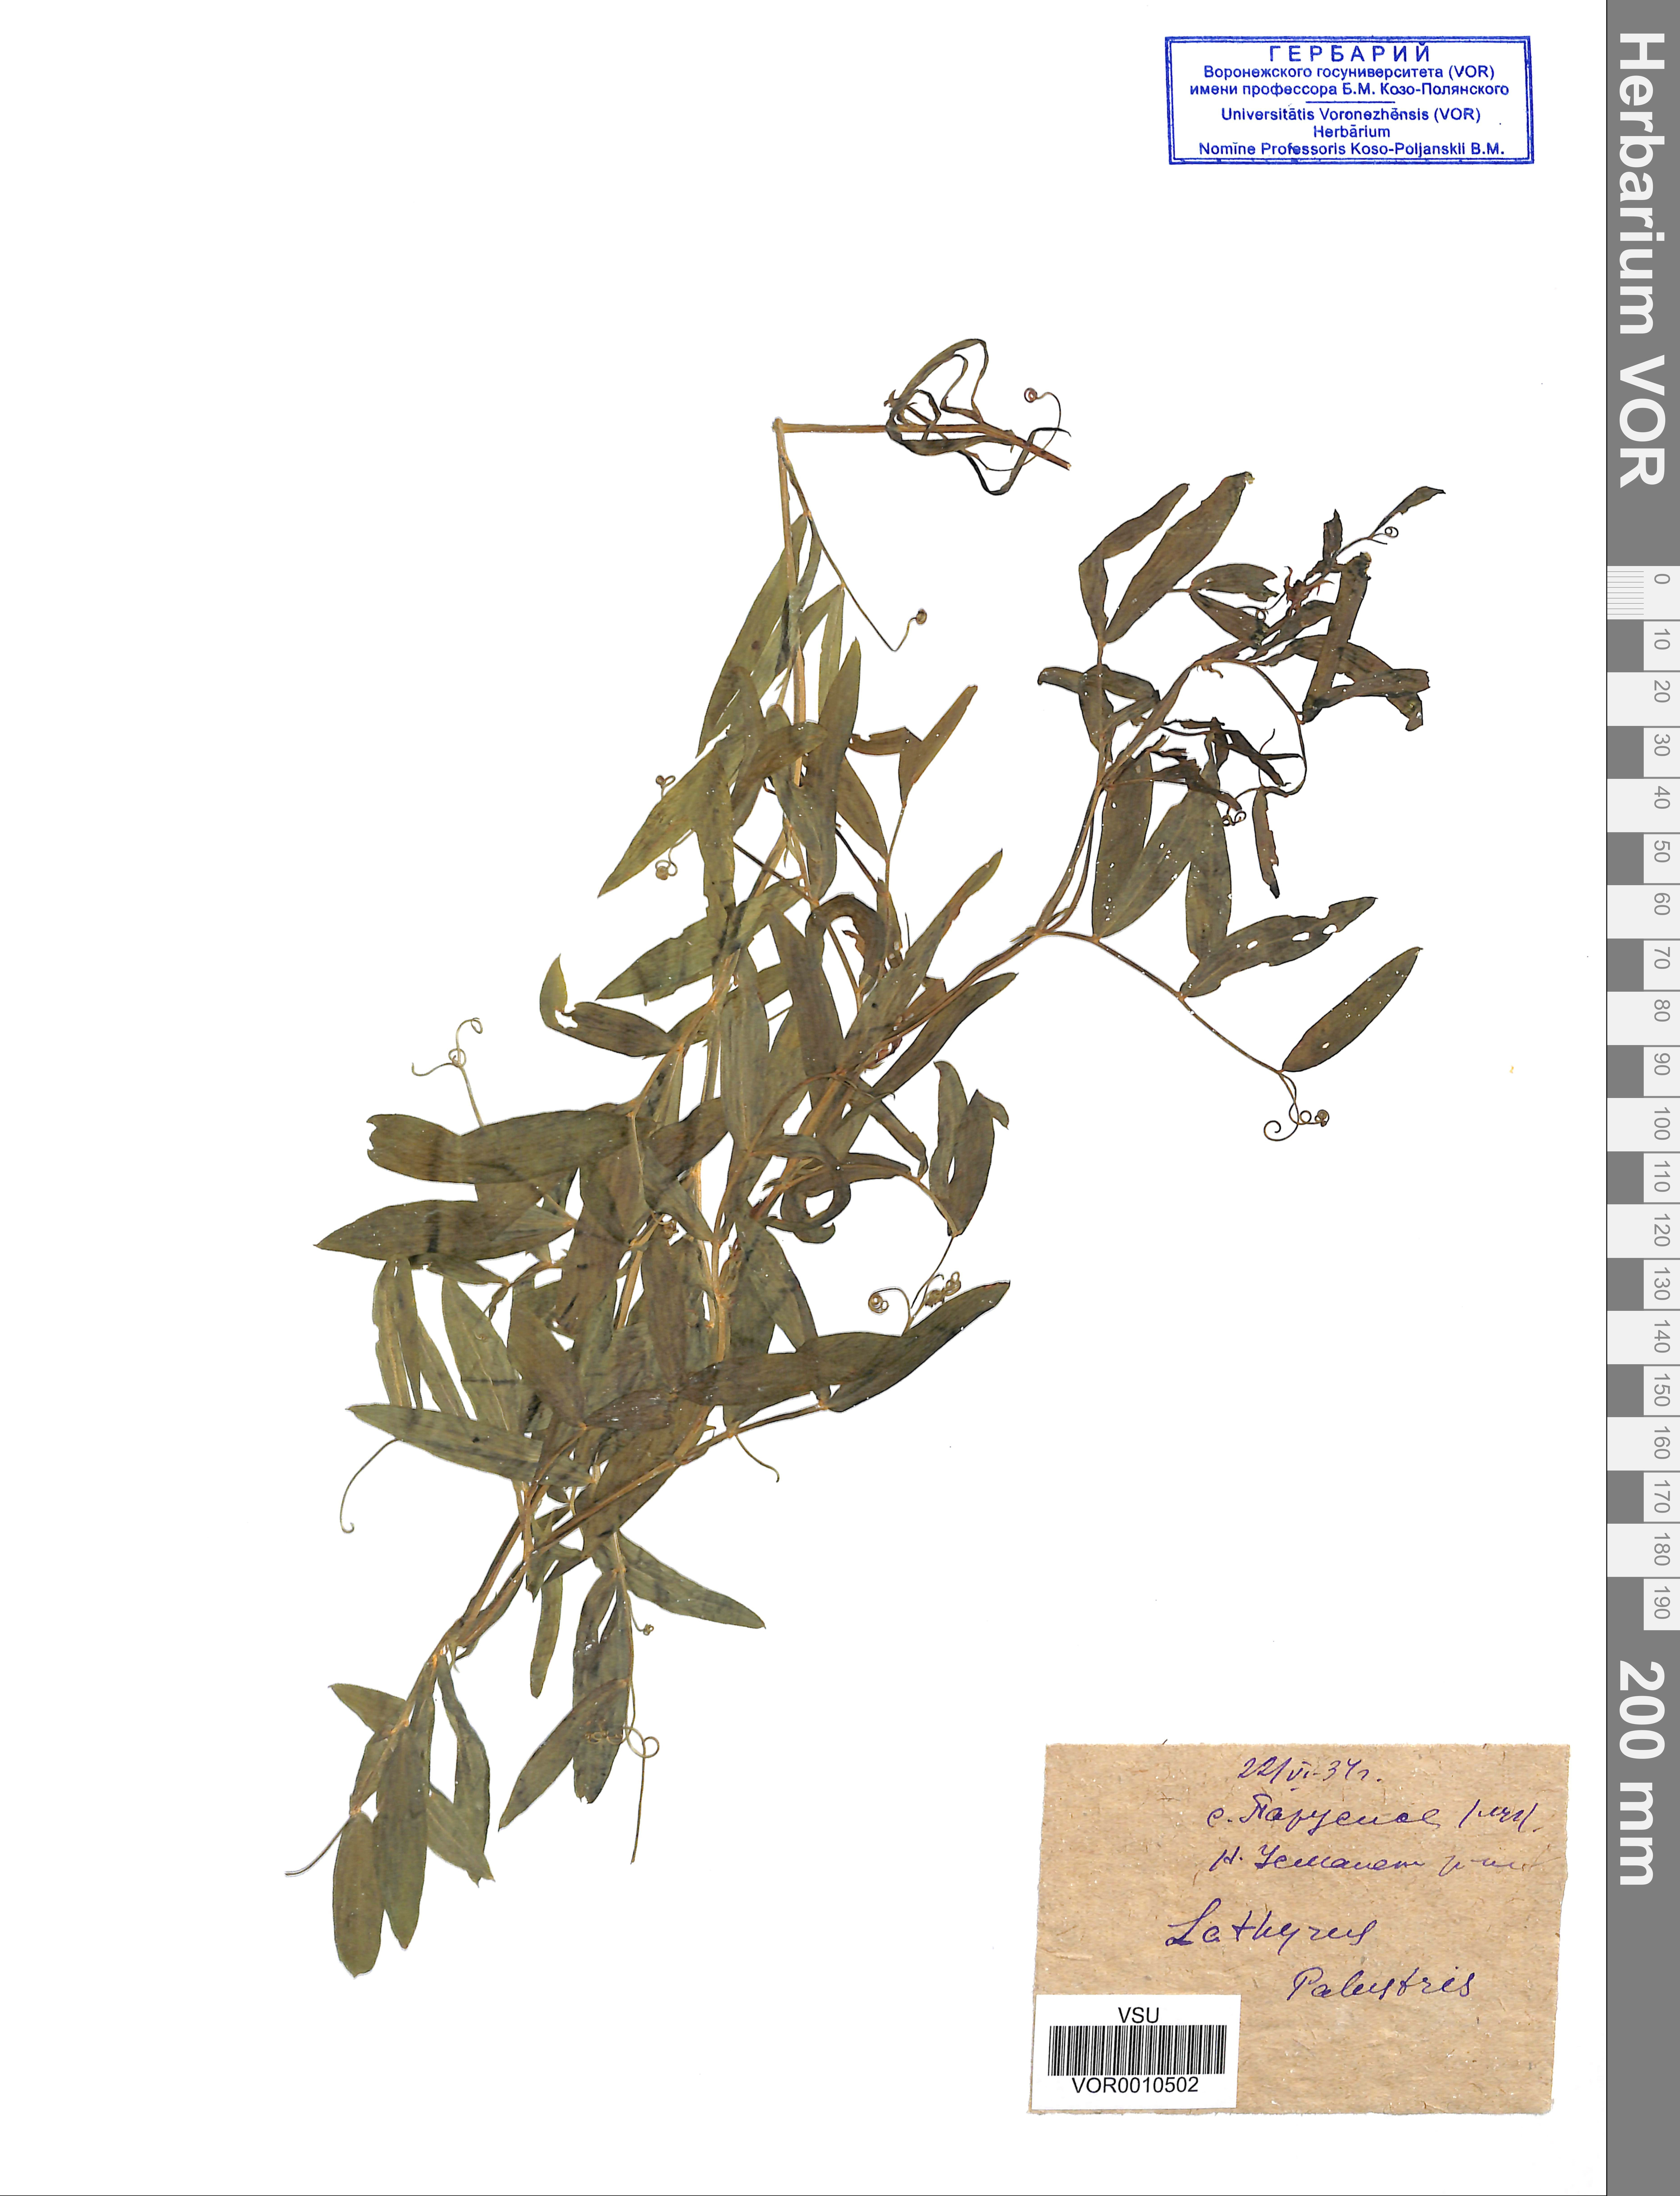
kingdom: Plantae
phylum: Tracheophyta
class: Magnoliopsida
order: Fabales
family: Fabaceae
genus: Lathyrus
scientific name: Lathyrus palustris
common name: Marsh pea
